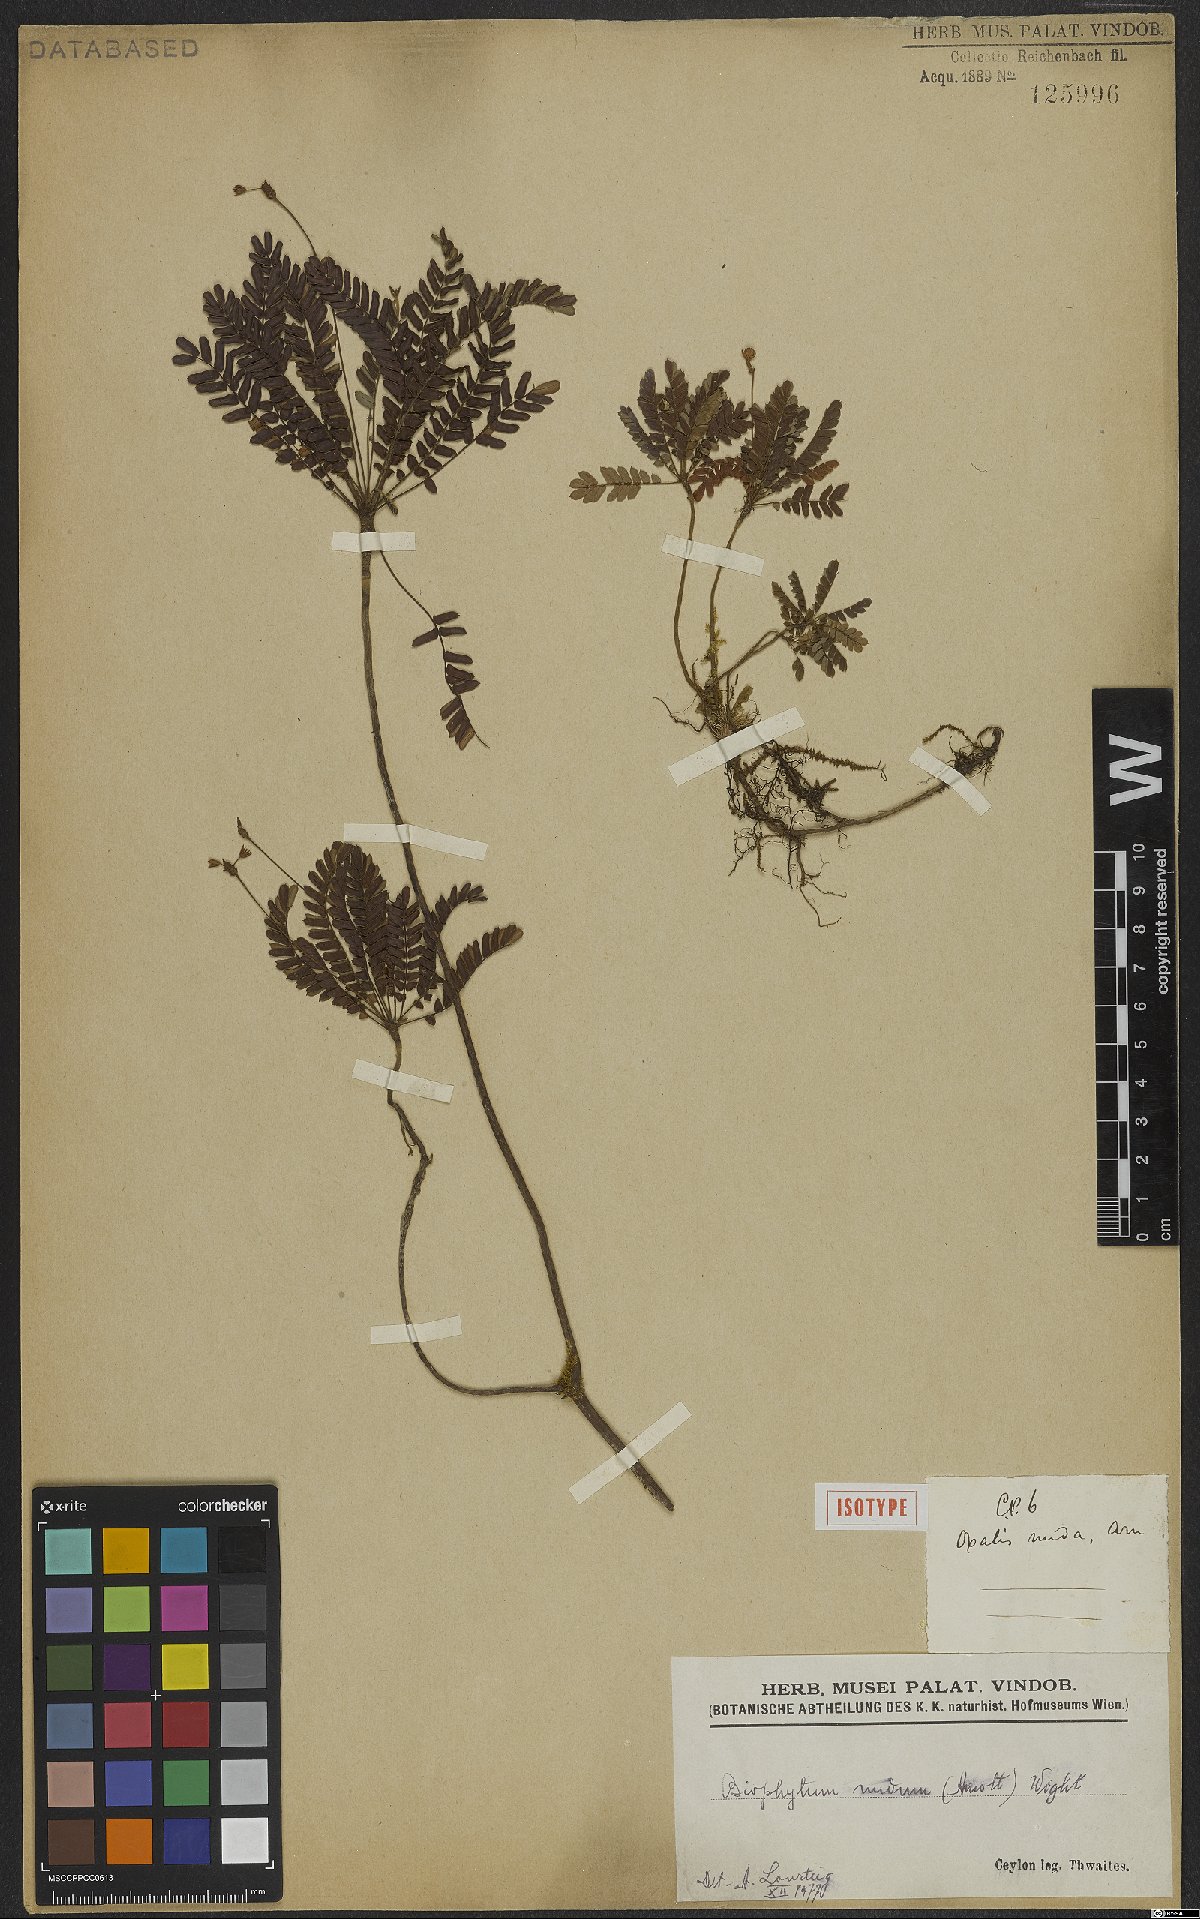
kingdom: Plantae
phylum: Tracheophyta
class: Magnoliopsida
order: Oxalidales
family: Oxalidaceae
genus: Biophytum
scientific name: Biophytum nudum
